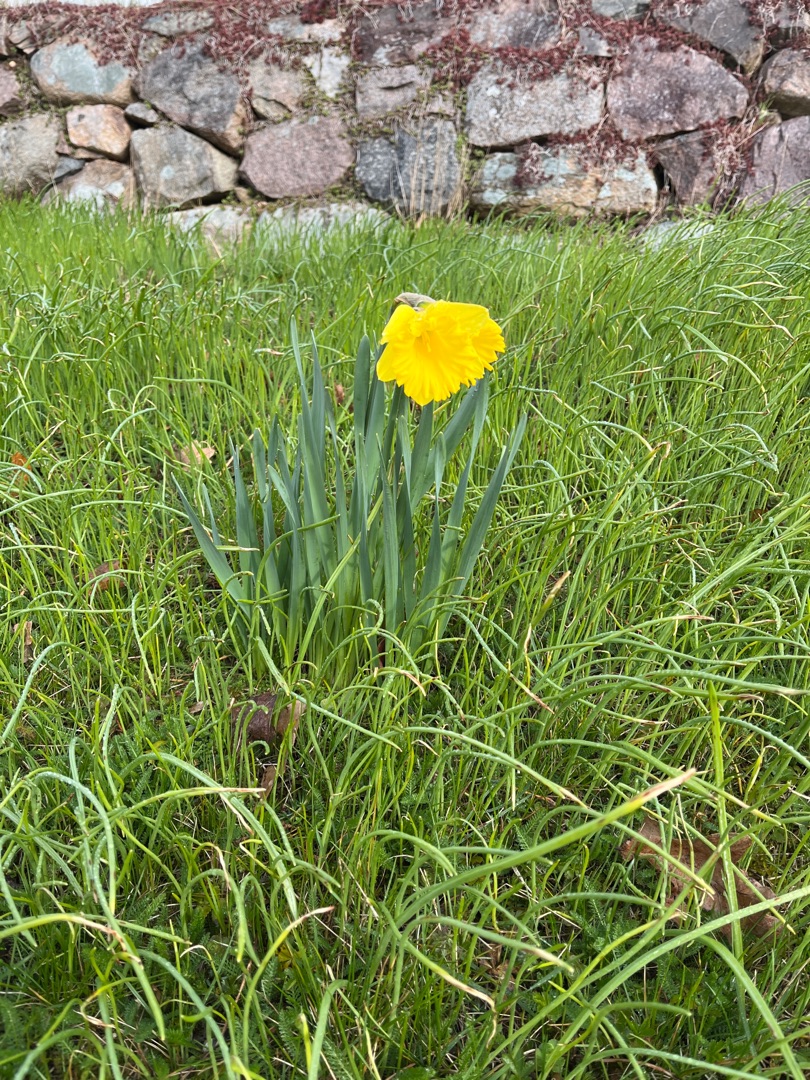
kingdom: Plantae
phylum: Tracheophyta
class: Liliopsida
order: Asparagales
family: Amaryllidaceae
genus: Narcissus
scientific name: Narcissus pseudonarcissus
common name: Påskelilje
